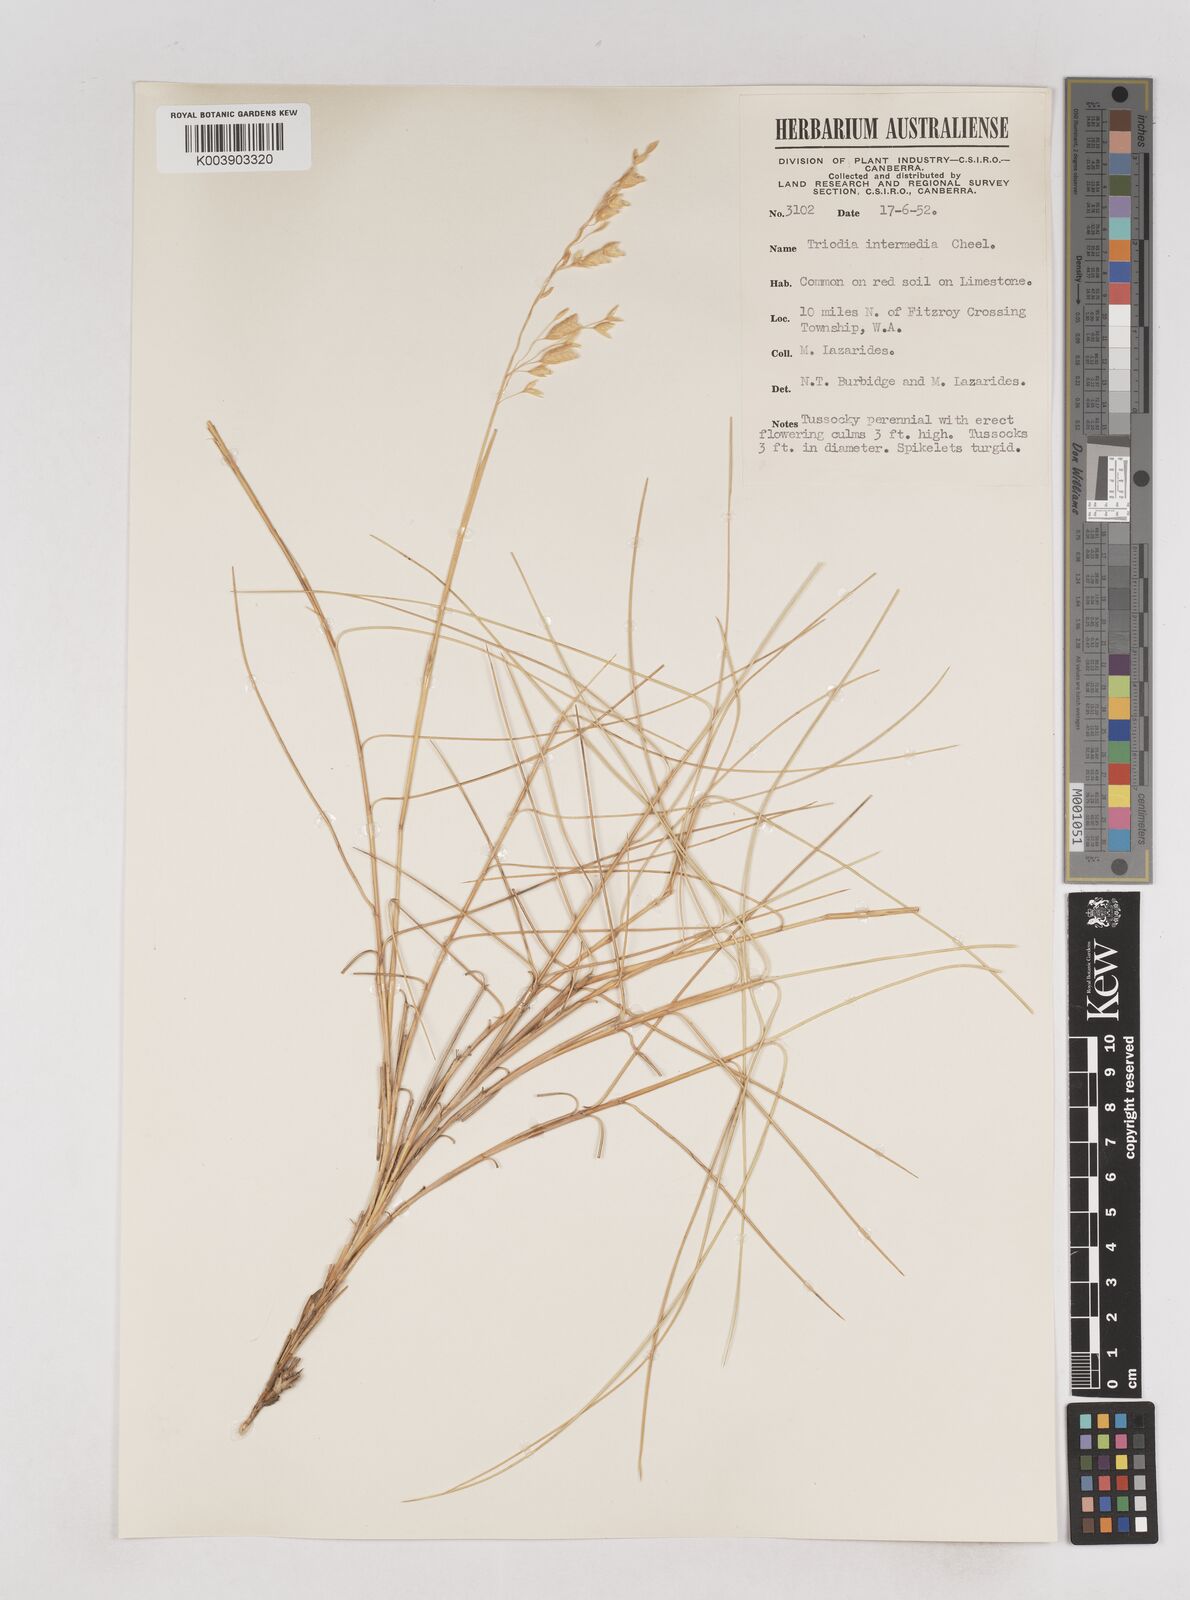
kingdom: Plantae
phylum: Tracheophyta
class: Liliopsida
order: Poales
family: Poaceae
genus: Triodia
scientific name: Triodia intermedia
